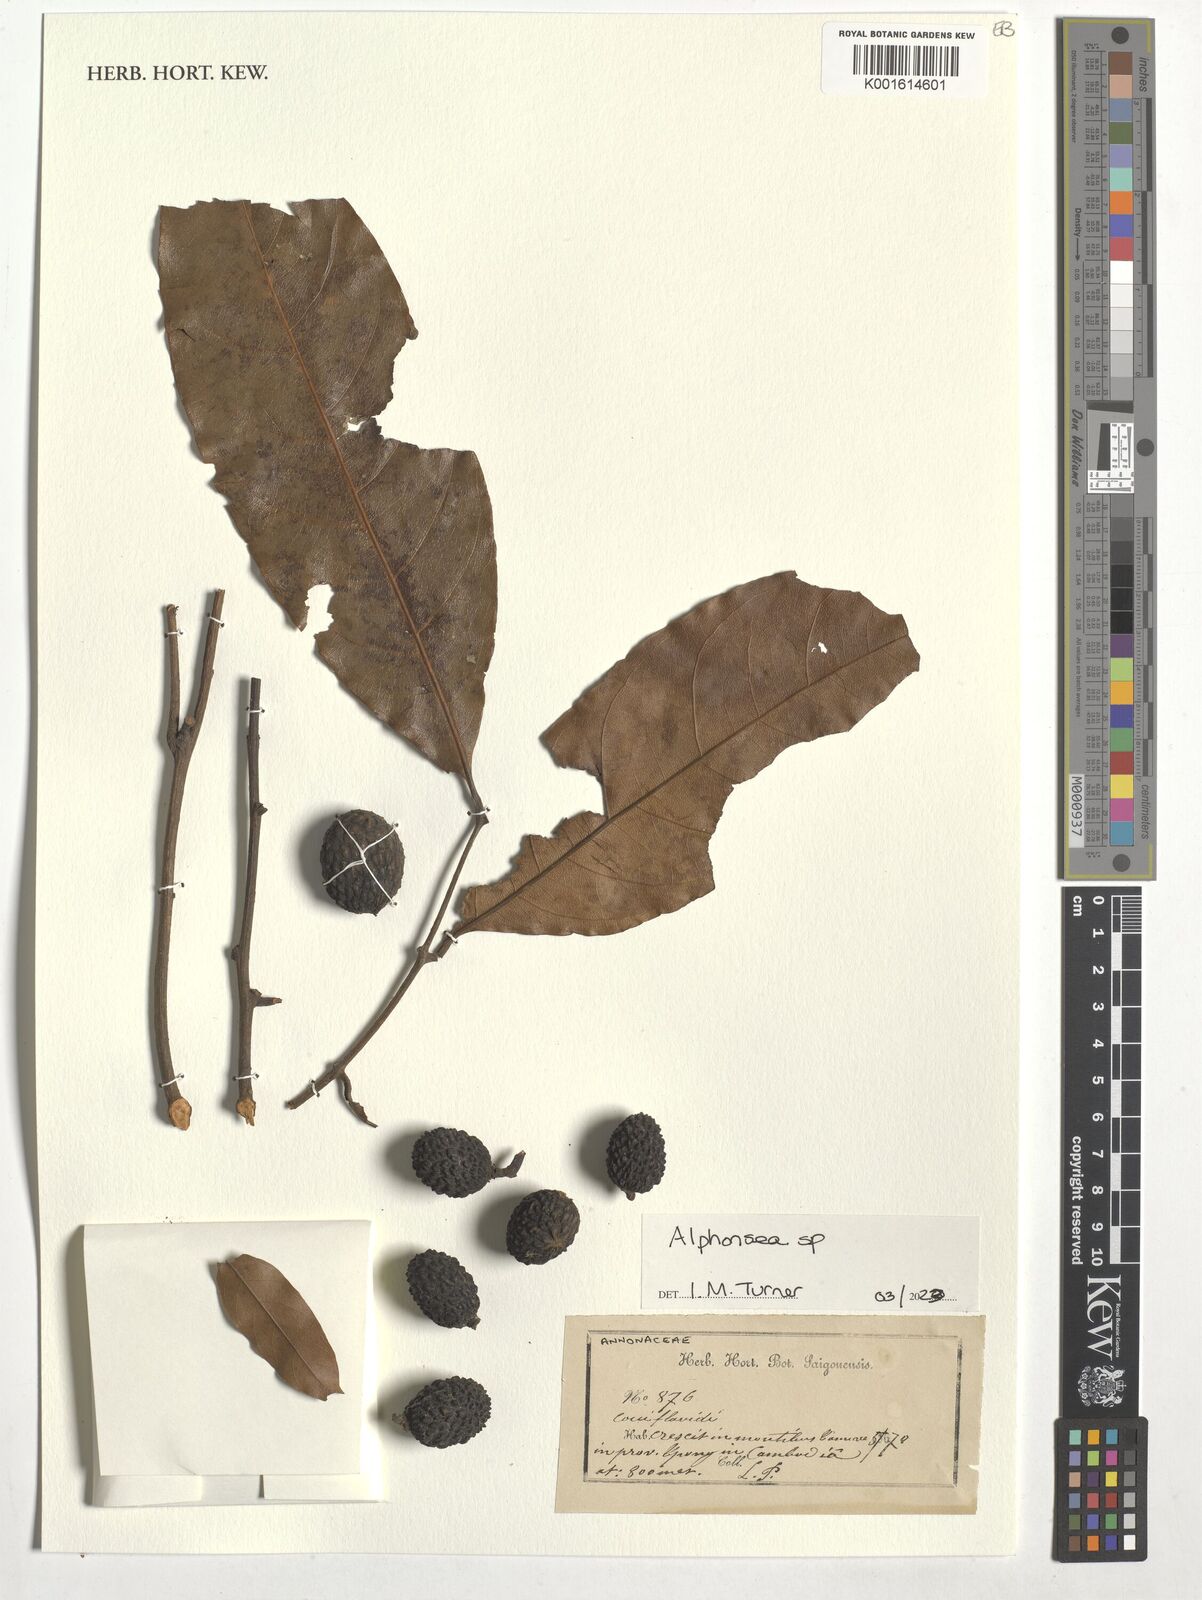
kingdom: Plantae
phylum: Tracheophyta
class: Magnoliopsida
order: Magnoliales
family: Annonaceae
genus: Alphonsea
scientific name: Alphonsea
